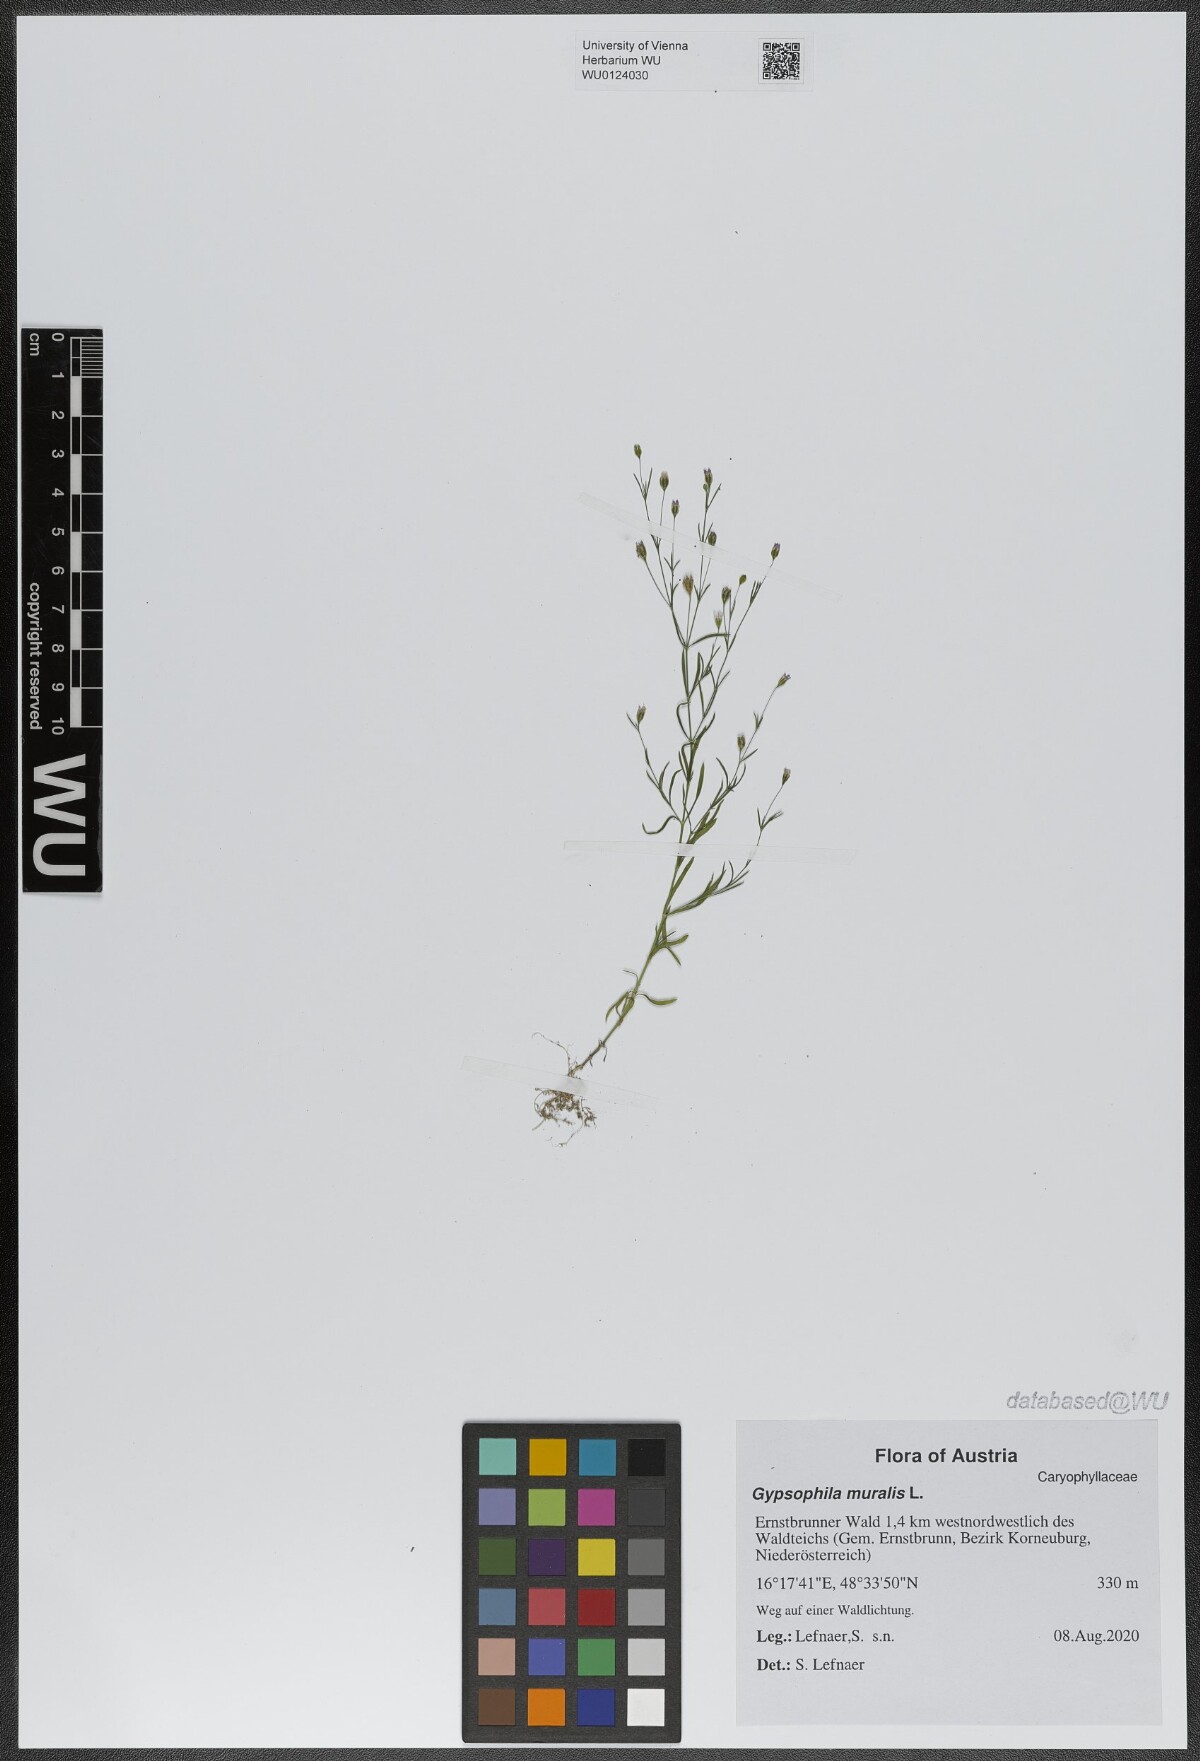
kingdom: Plantae
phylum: Tracheophyta
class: Magnoliopsida
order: Caryophyllales
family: Caryophyllaceae
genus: Psammophiliella
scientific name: Psammophiliella muralis
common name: Cushion baby's-breath
